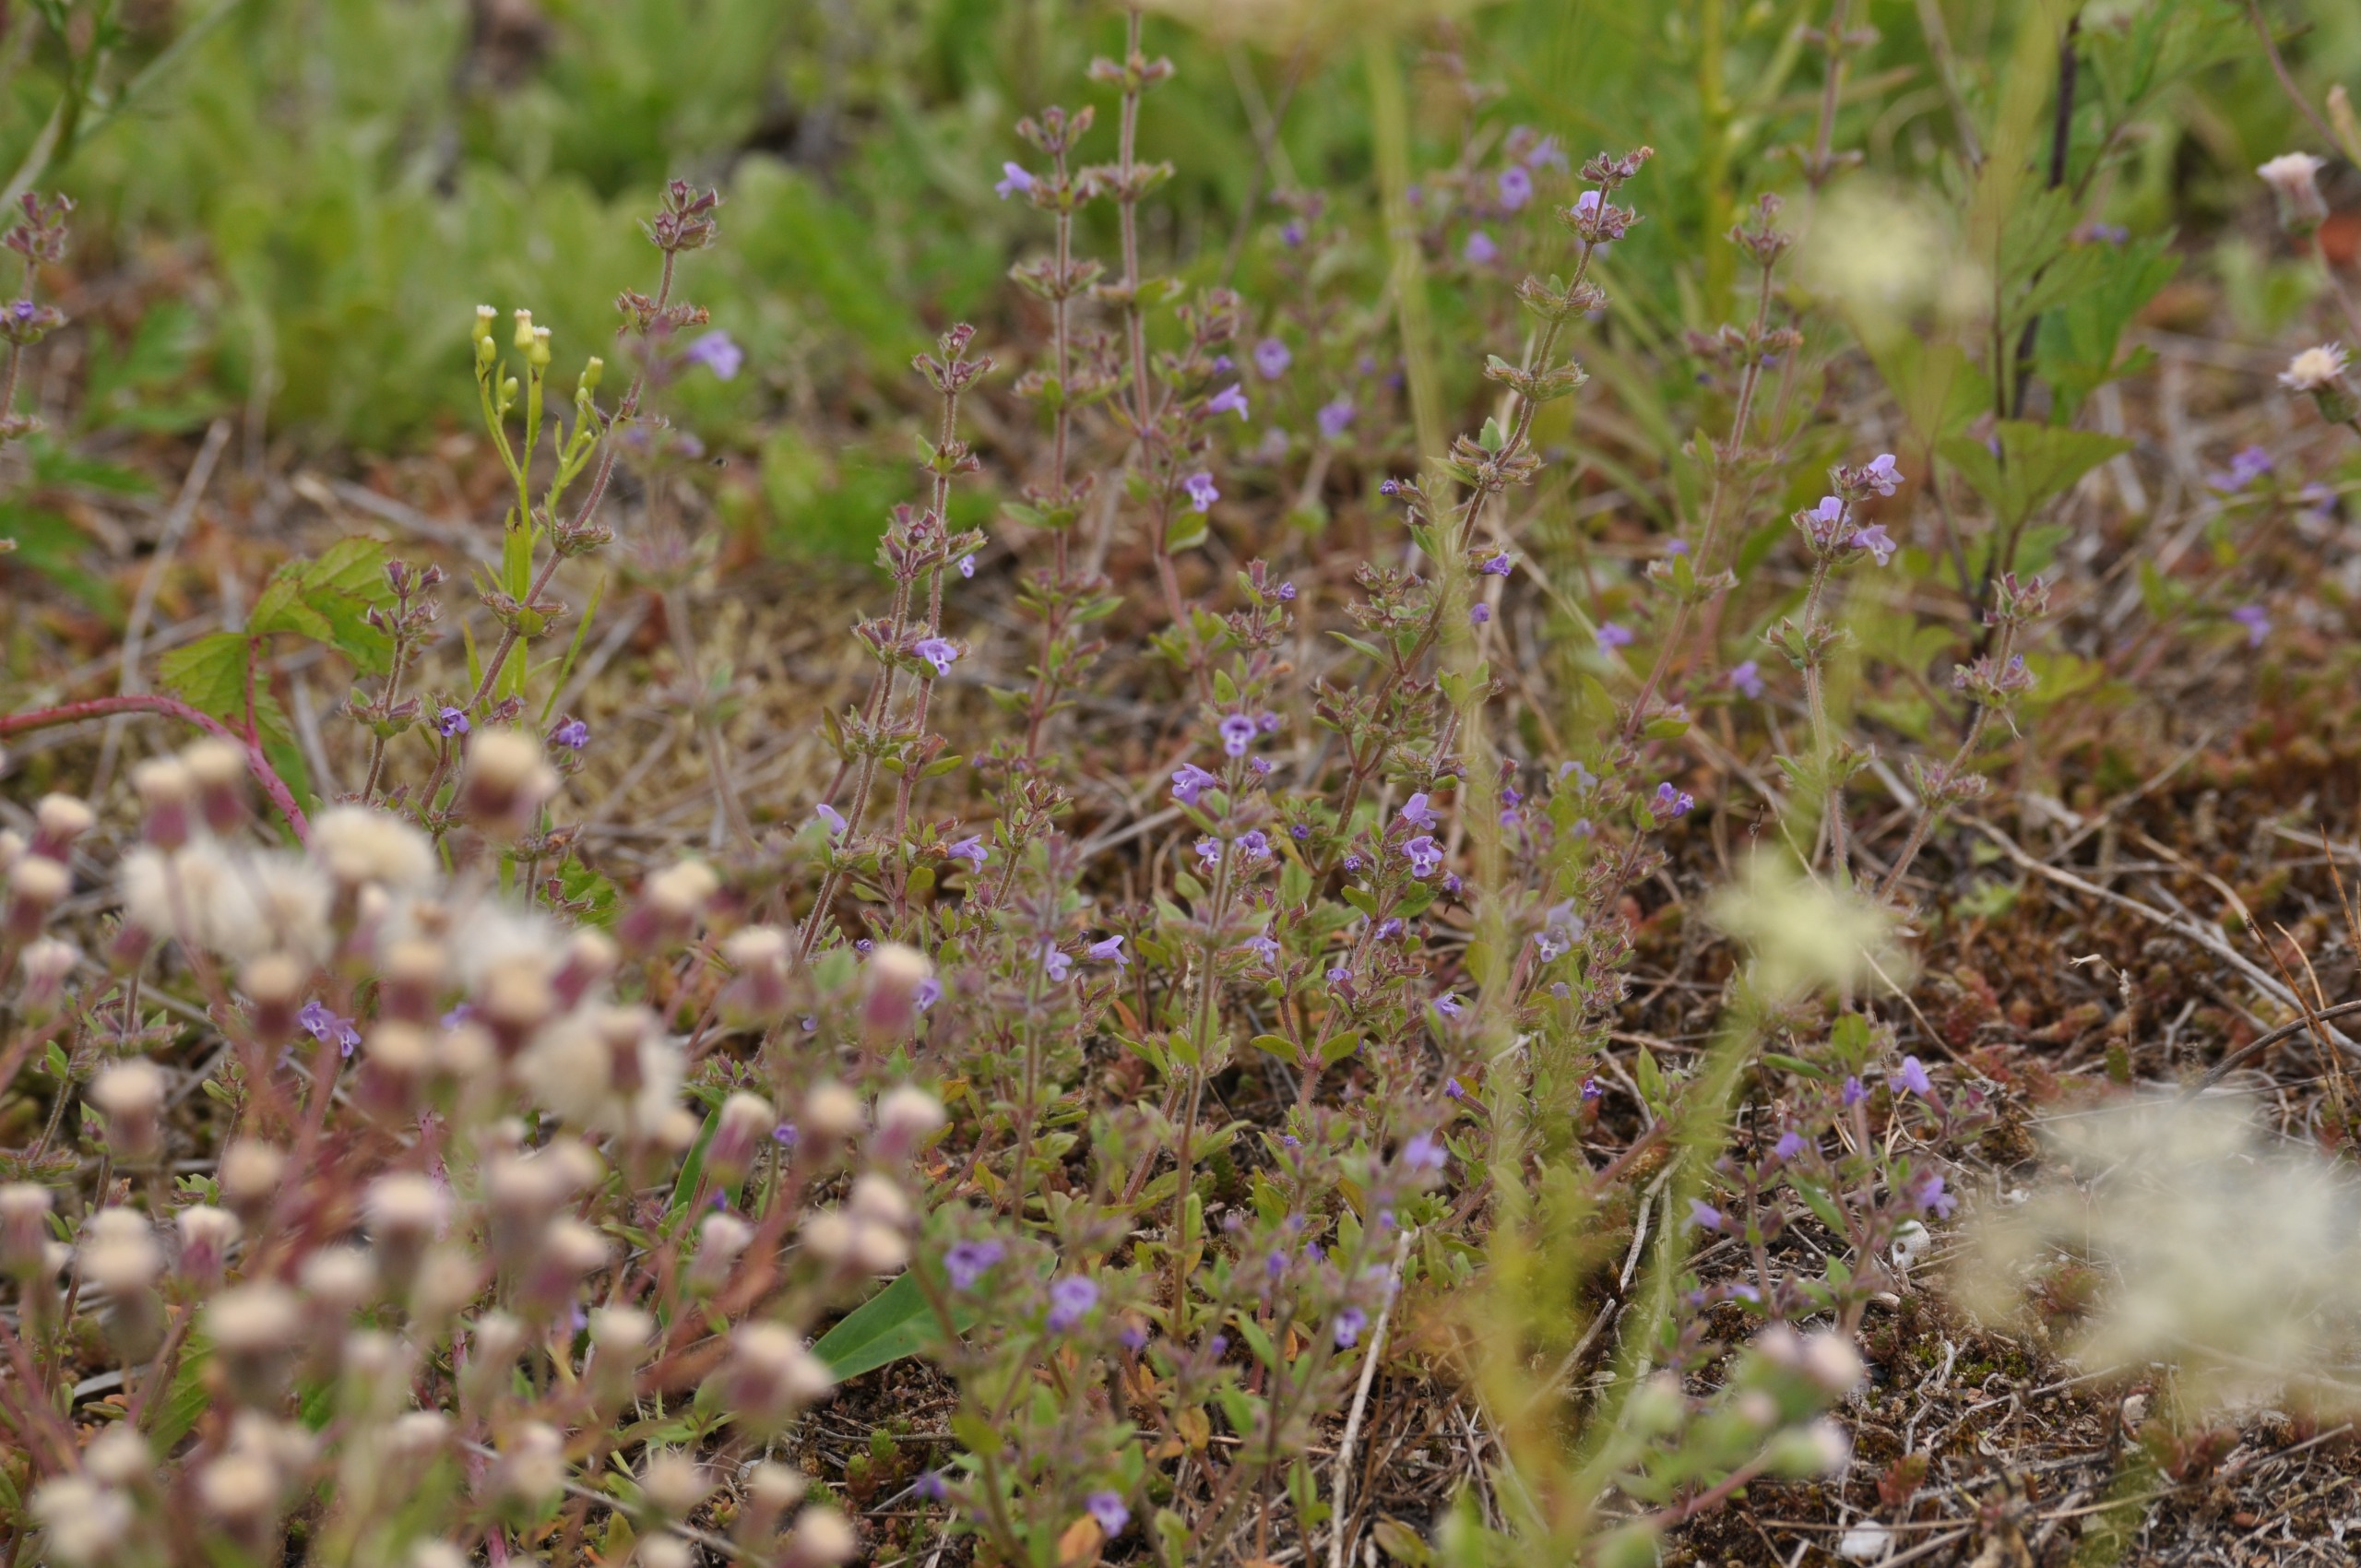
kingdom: Plantae
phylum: Tracheophyta
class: Magnoliopsida
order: Lamiales
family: Lamiaceae
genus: Clinopodium
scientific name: Clinopodium acinos
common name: Voldtimian
